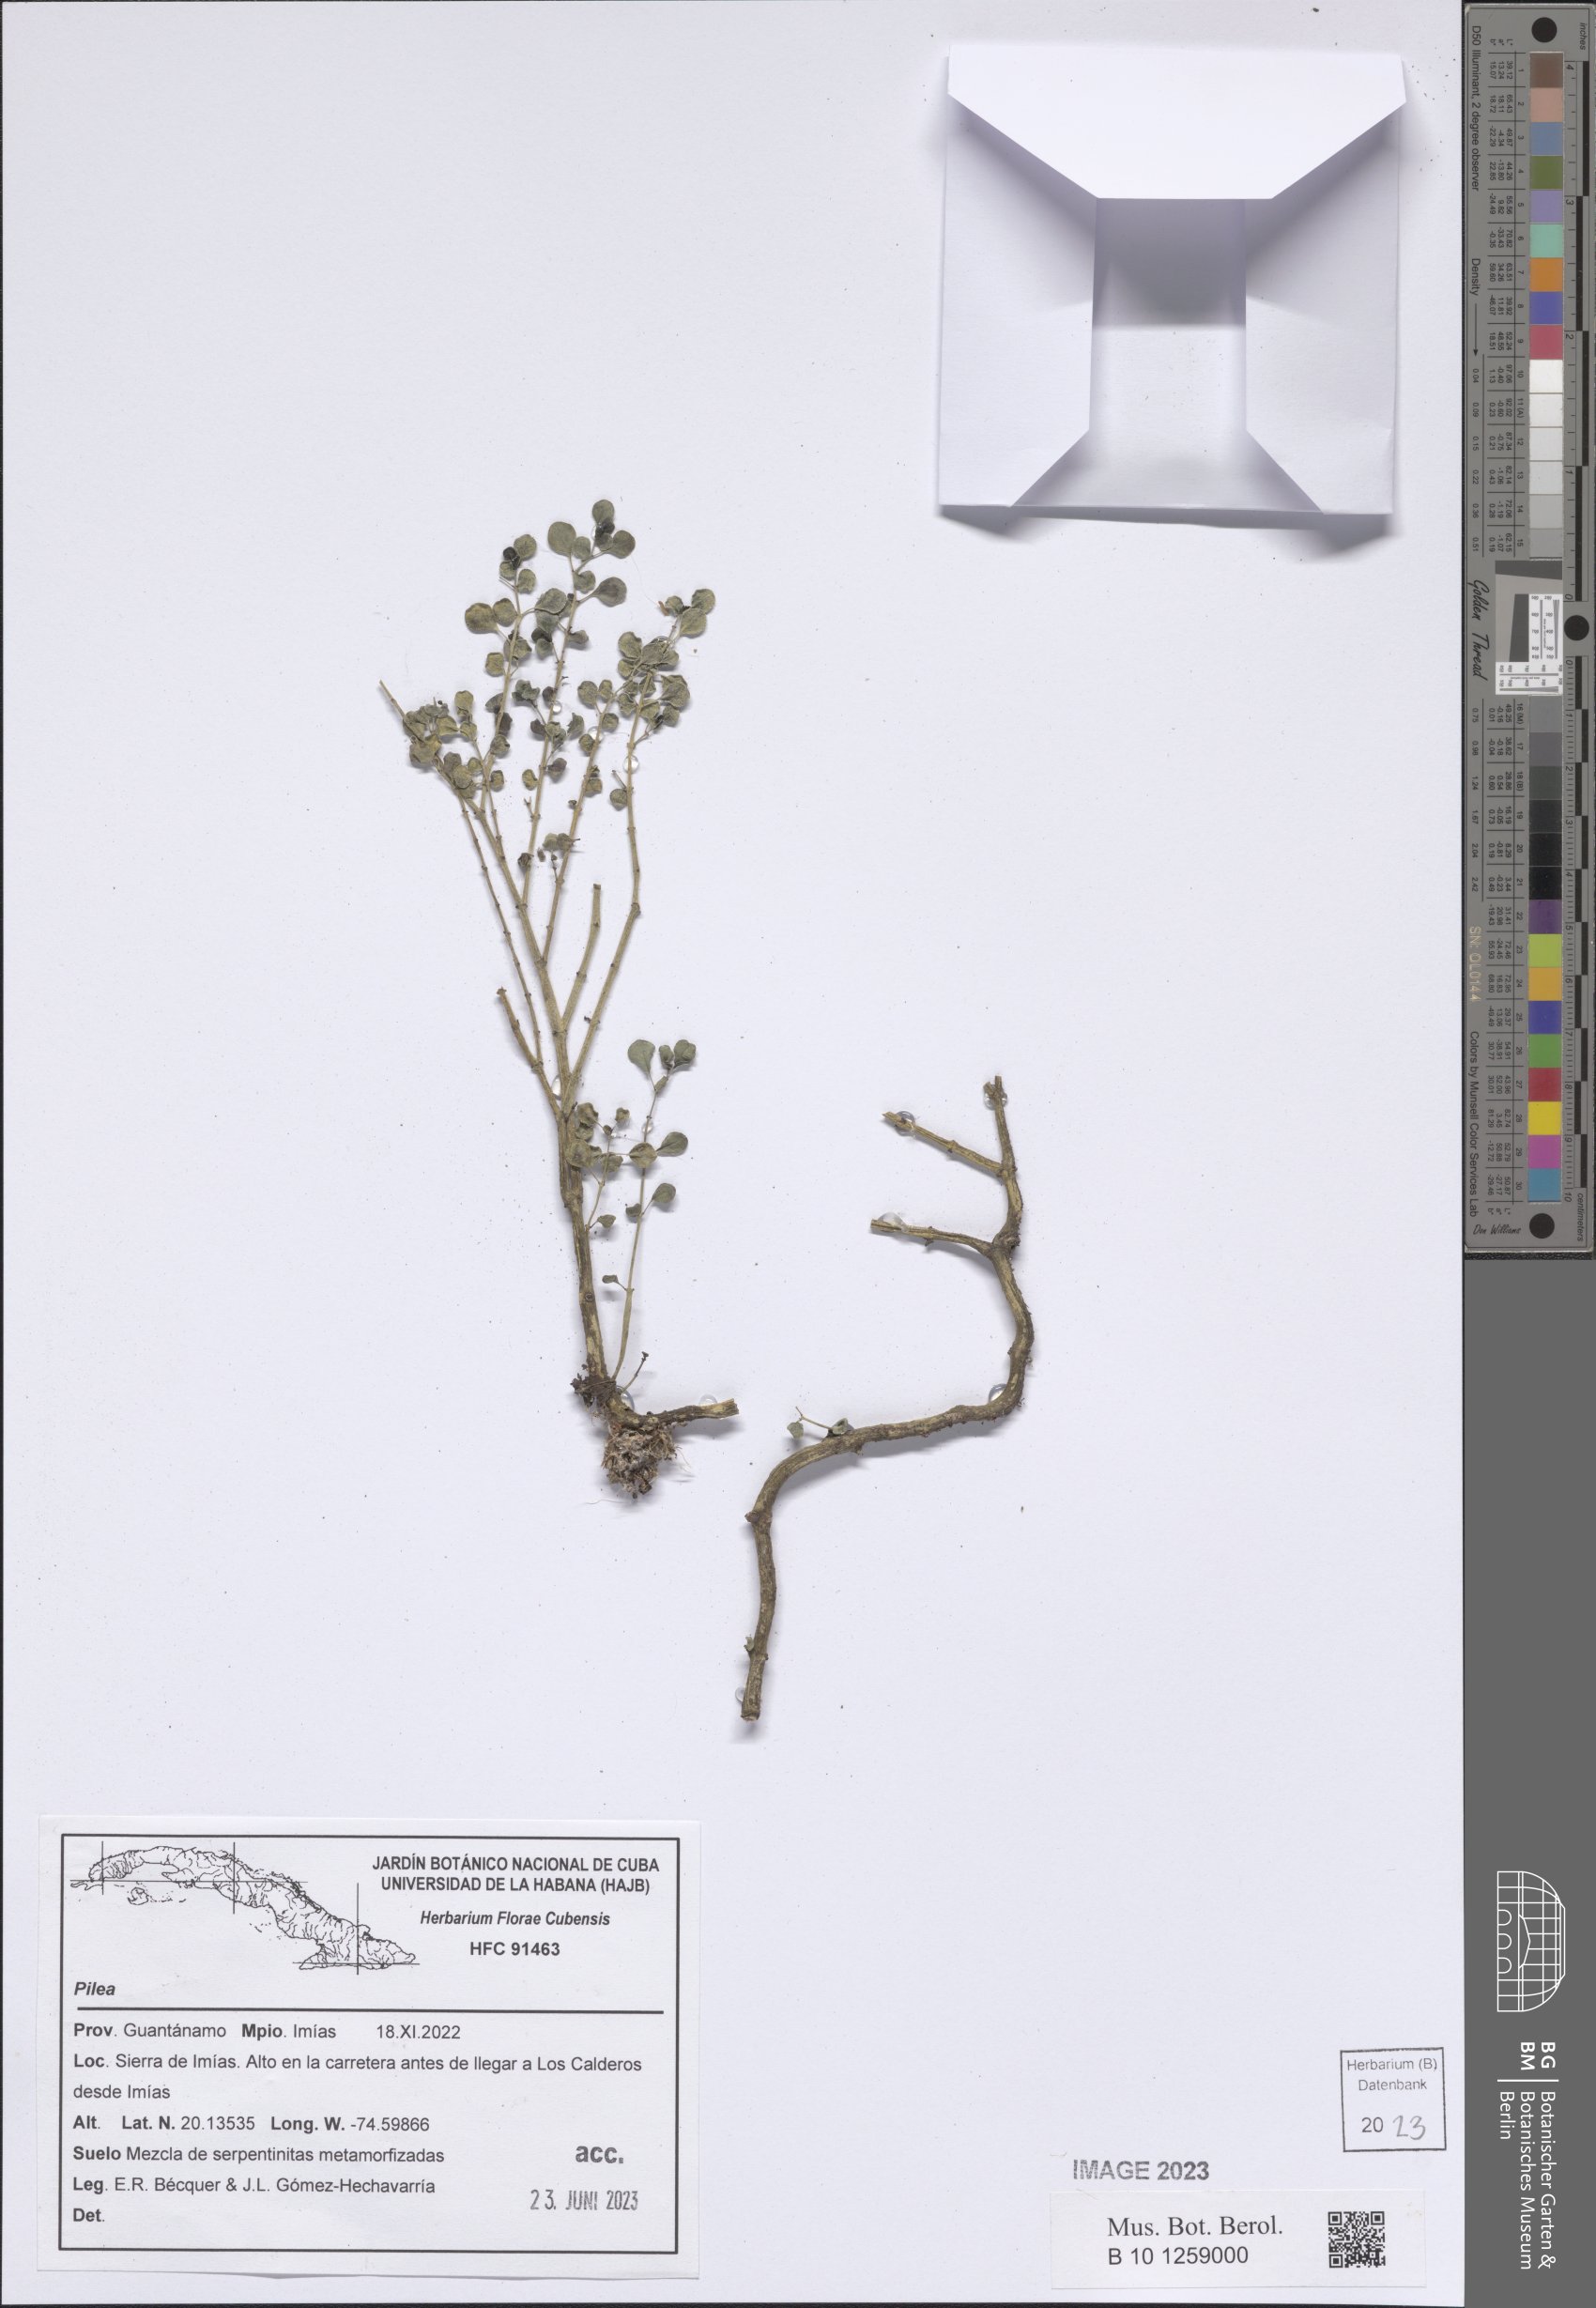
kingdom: Plantae
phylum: Tracheophyta
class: Magnoliopsida
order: Rosales
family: Urticaceae
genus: Pilea
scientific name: Pilea
